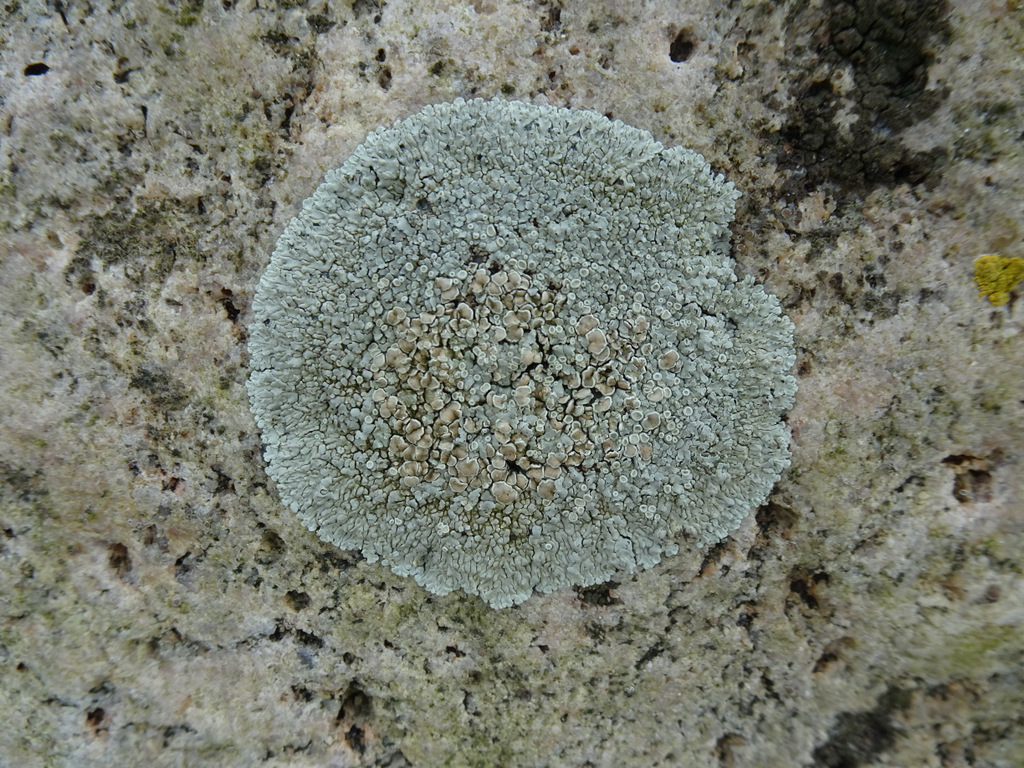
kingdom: Fungi
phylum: Ascomycota
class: Lecanoromycetes
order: Lecanorales
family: Lecanoraceae
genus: Protoparmeliopsis
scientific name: Protoparmeliopsis muralis
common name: randfliget kantskivelav
